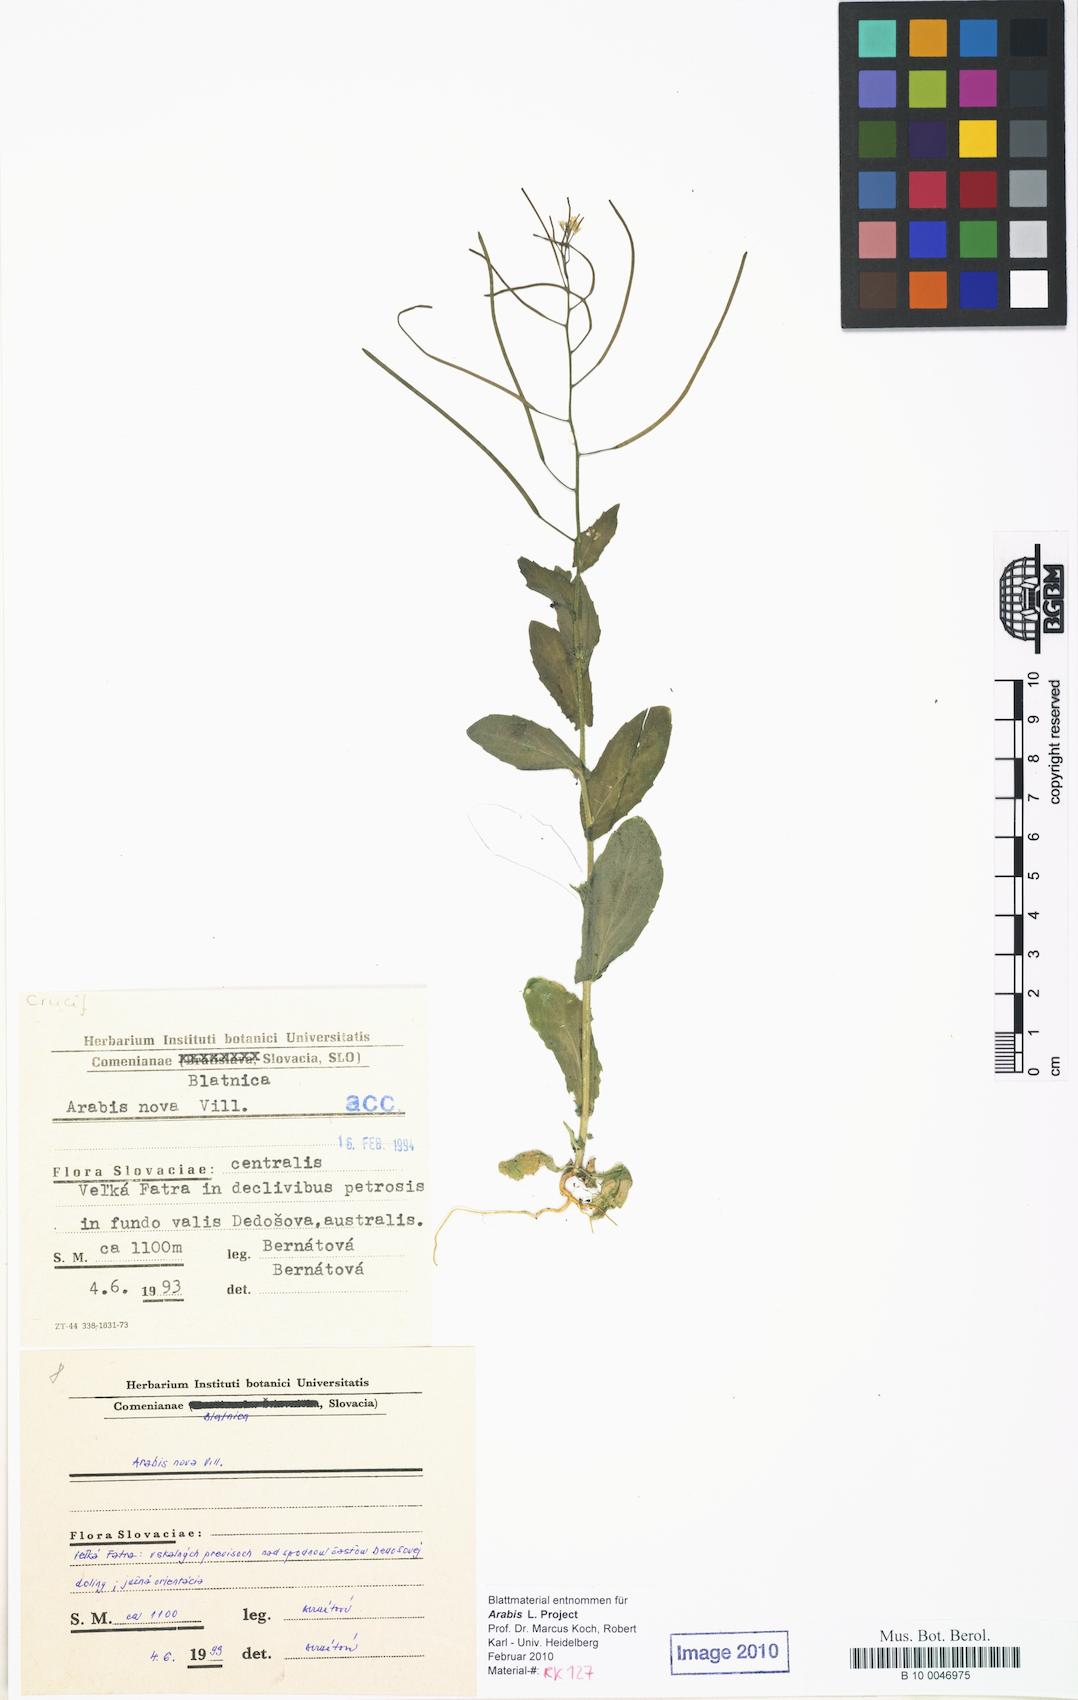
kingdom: Plantae
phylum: Tracheophyta
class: Magnoliopsida
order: Brassicales
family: Brassicaceae
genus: Arabis
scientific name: Arabis nova
